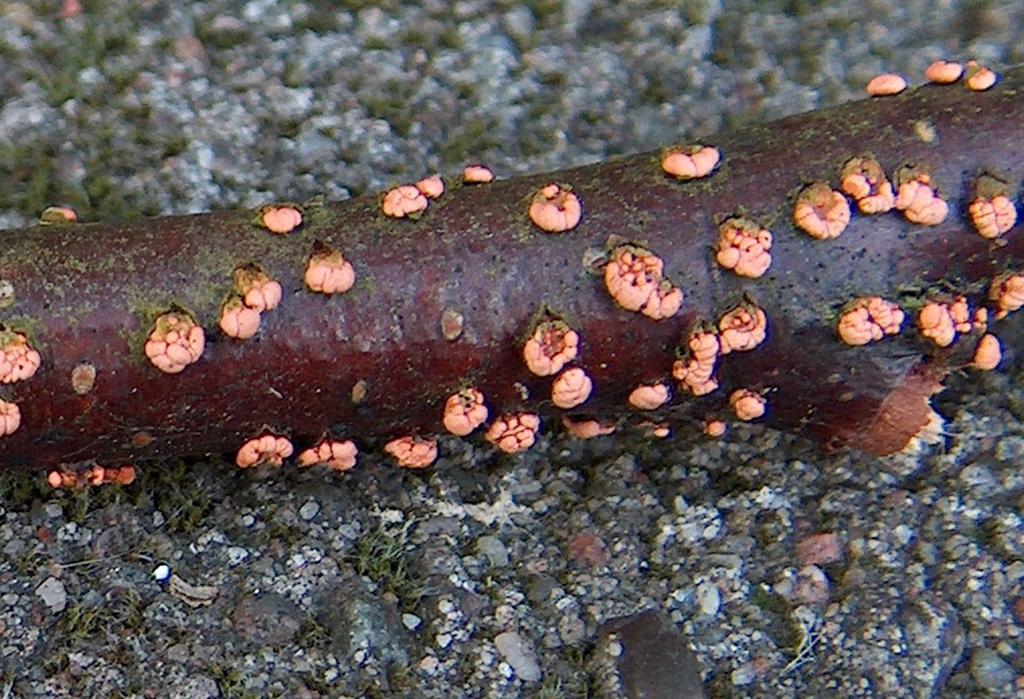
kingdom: Fungi
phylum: Ascomycota
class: Sordariomycetes
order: Hypocreales
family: Nectriaceae
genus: Nectria
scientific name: Nectria cinnabarina
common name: almindelig cinnobersvamp
